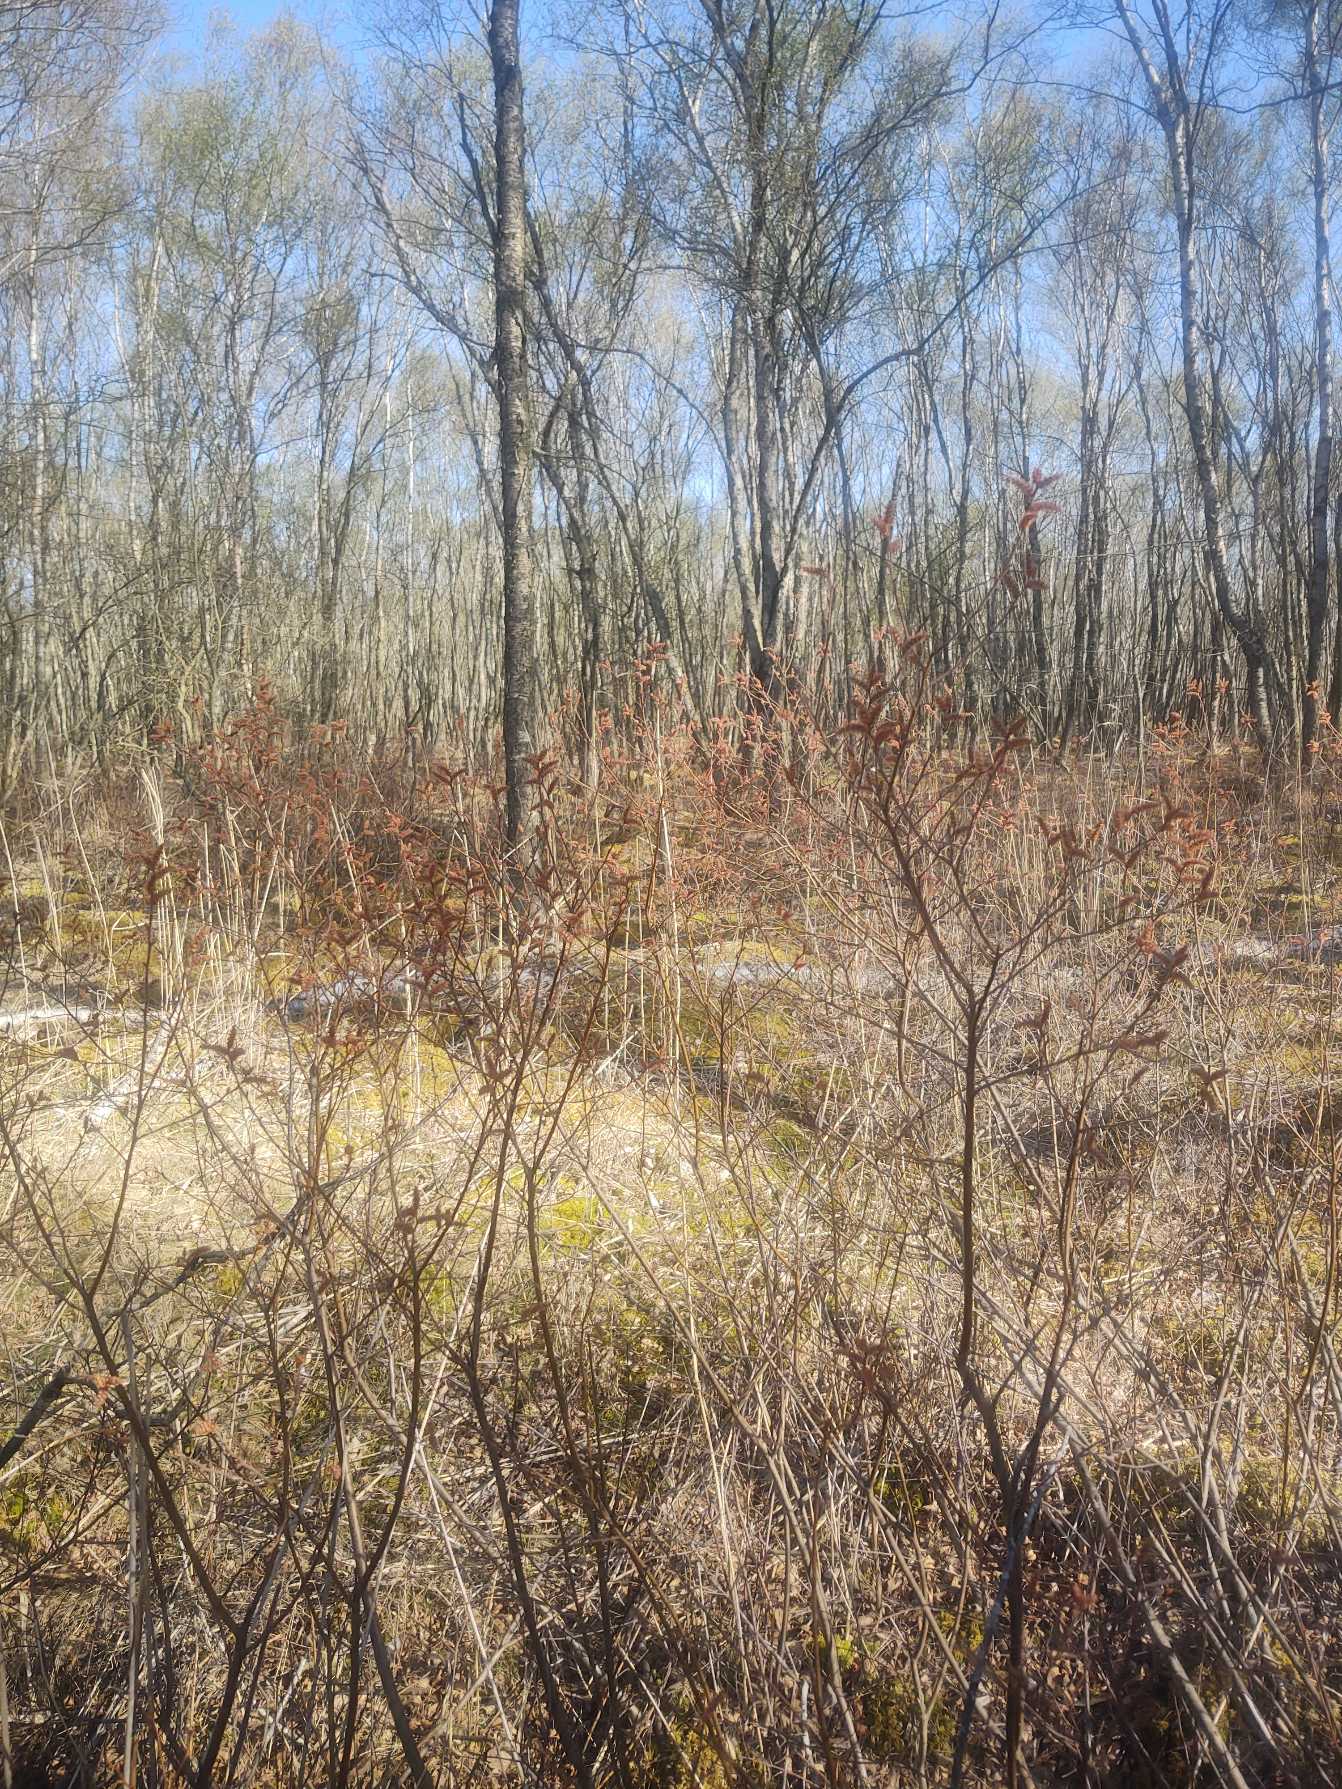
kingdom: Plantae
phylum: Tracheophyta
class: Magnoliopsida
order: Fagales
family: Myricaceae
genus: Myrica
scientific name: Myrica gale
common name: Pors
